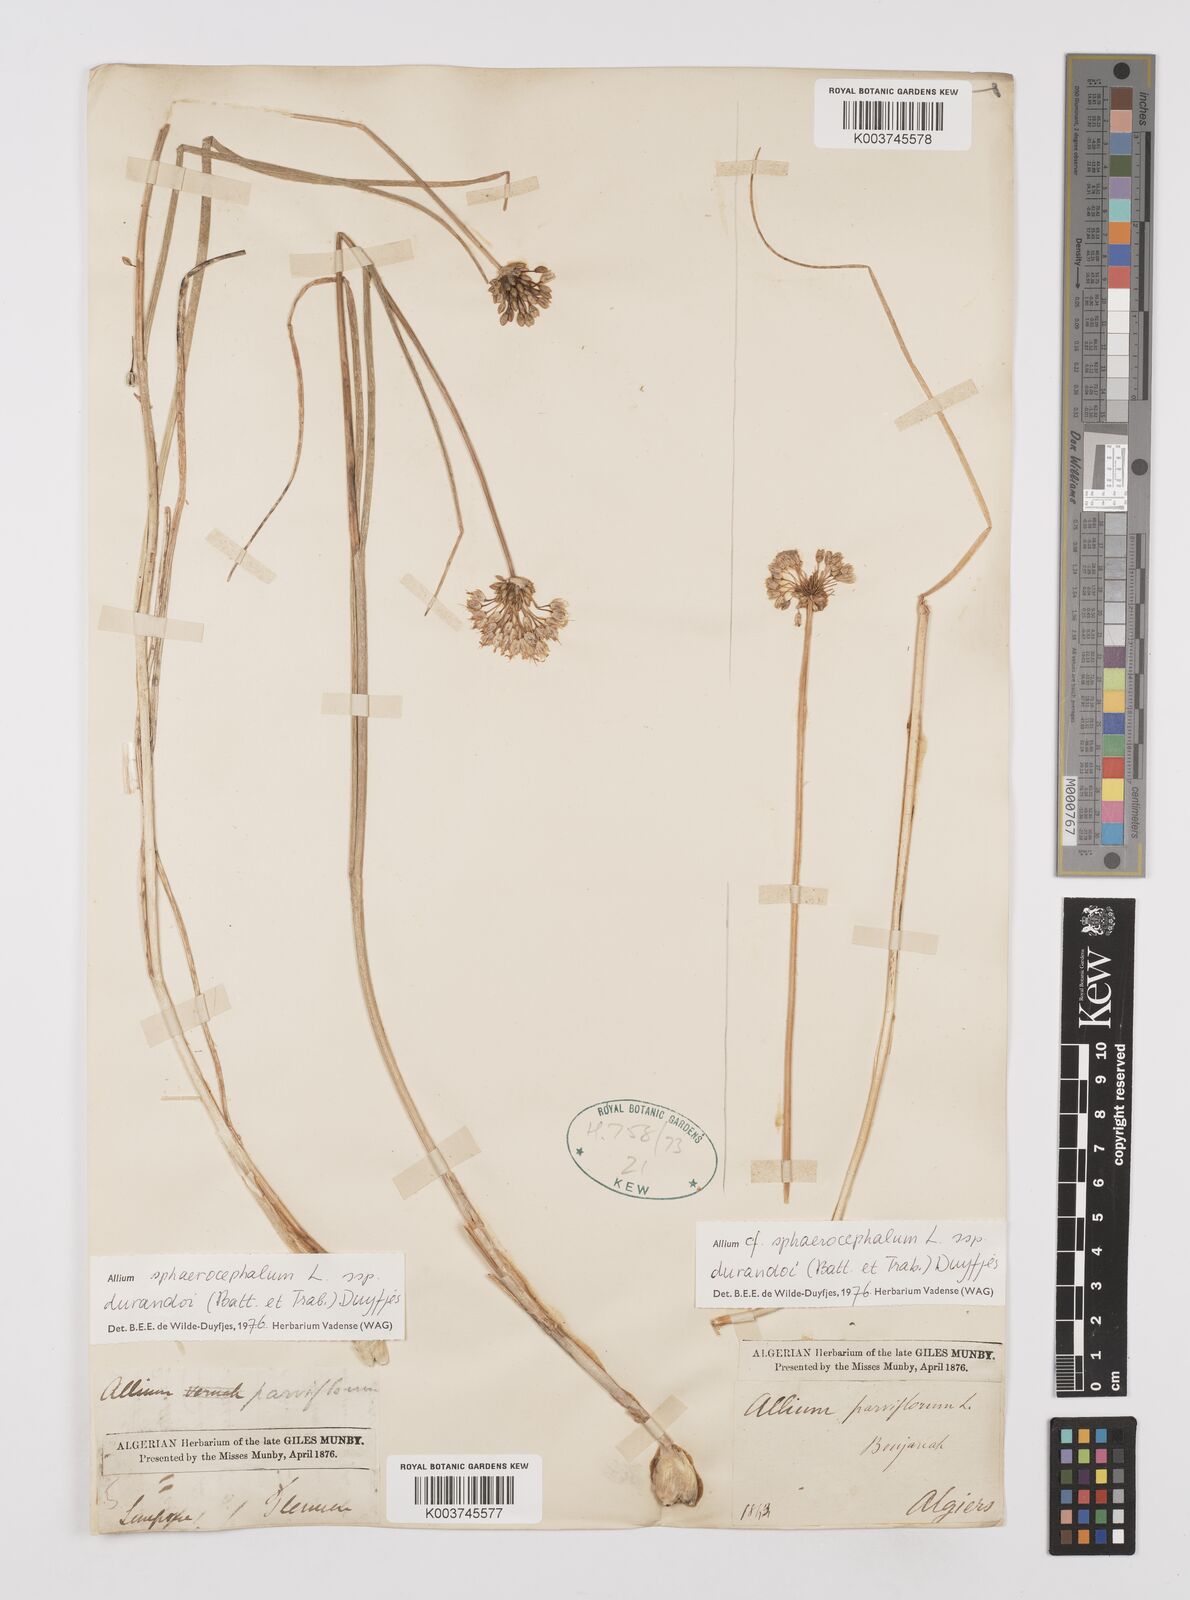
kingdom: Plantae
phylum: Tracheophyta
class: Liliopsida
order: Asparagales
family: Amaryllidaceae
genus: Allium
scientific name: Allium sphaerocephalon
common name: Round-headed leek
